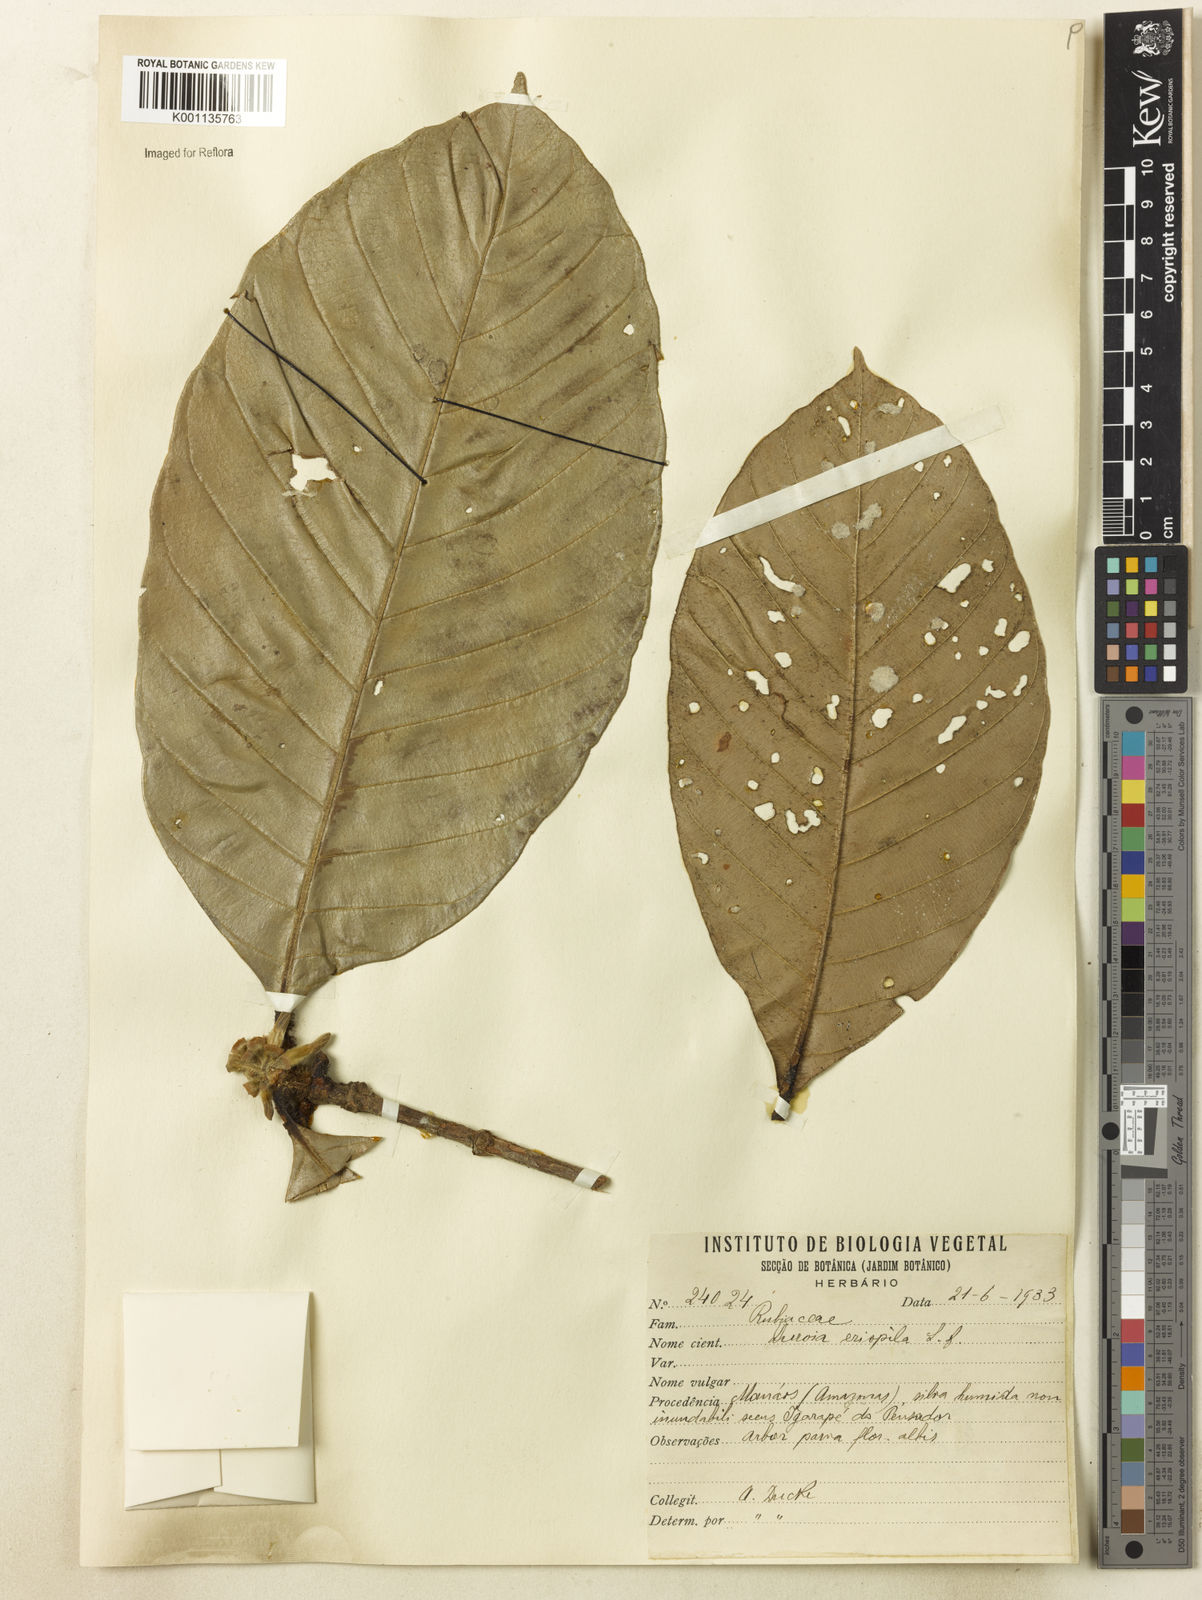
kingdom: Plantae
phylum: Tracheophyta
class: Magnoliopsida
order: Gentianales
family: Rubiaceae
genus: Duroia
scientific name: Duroia eriopila
